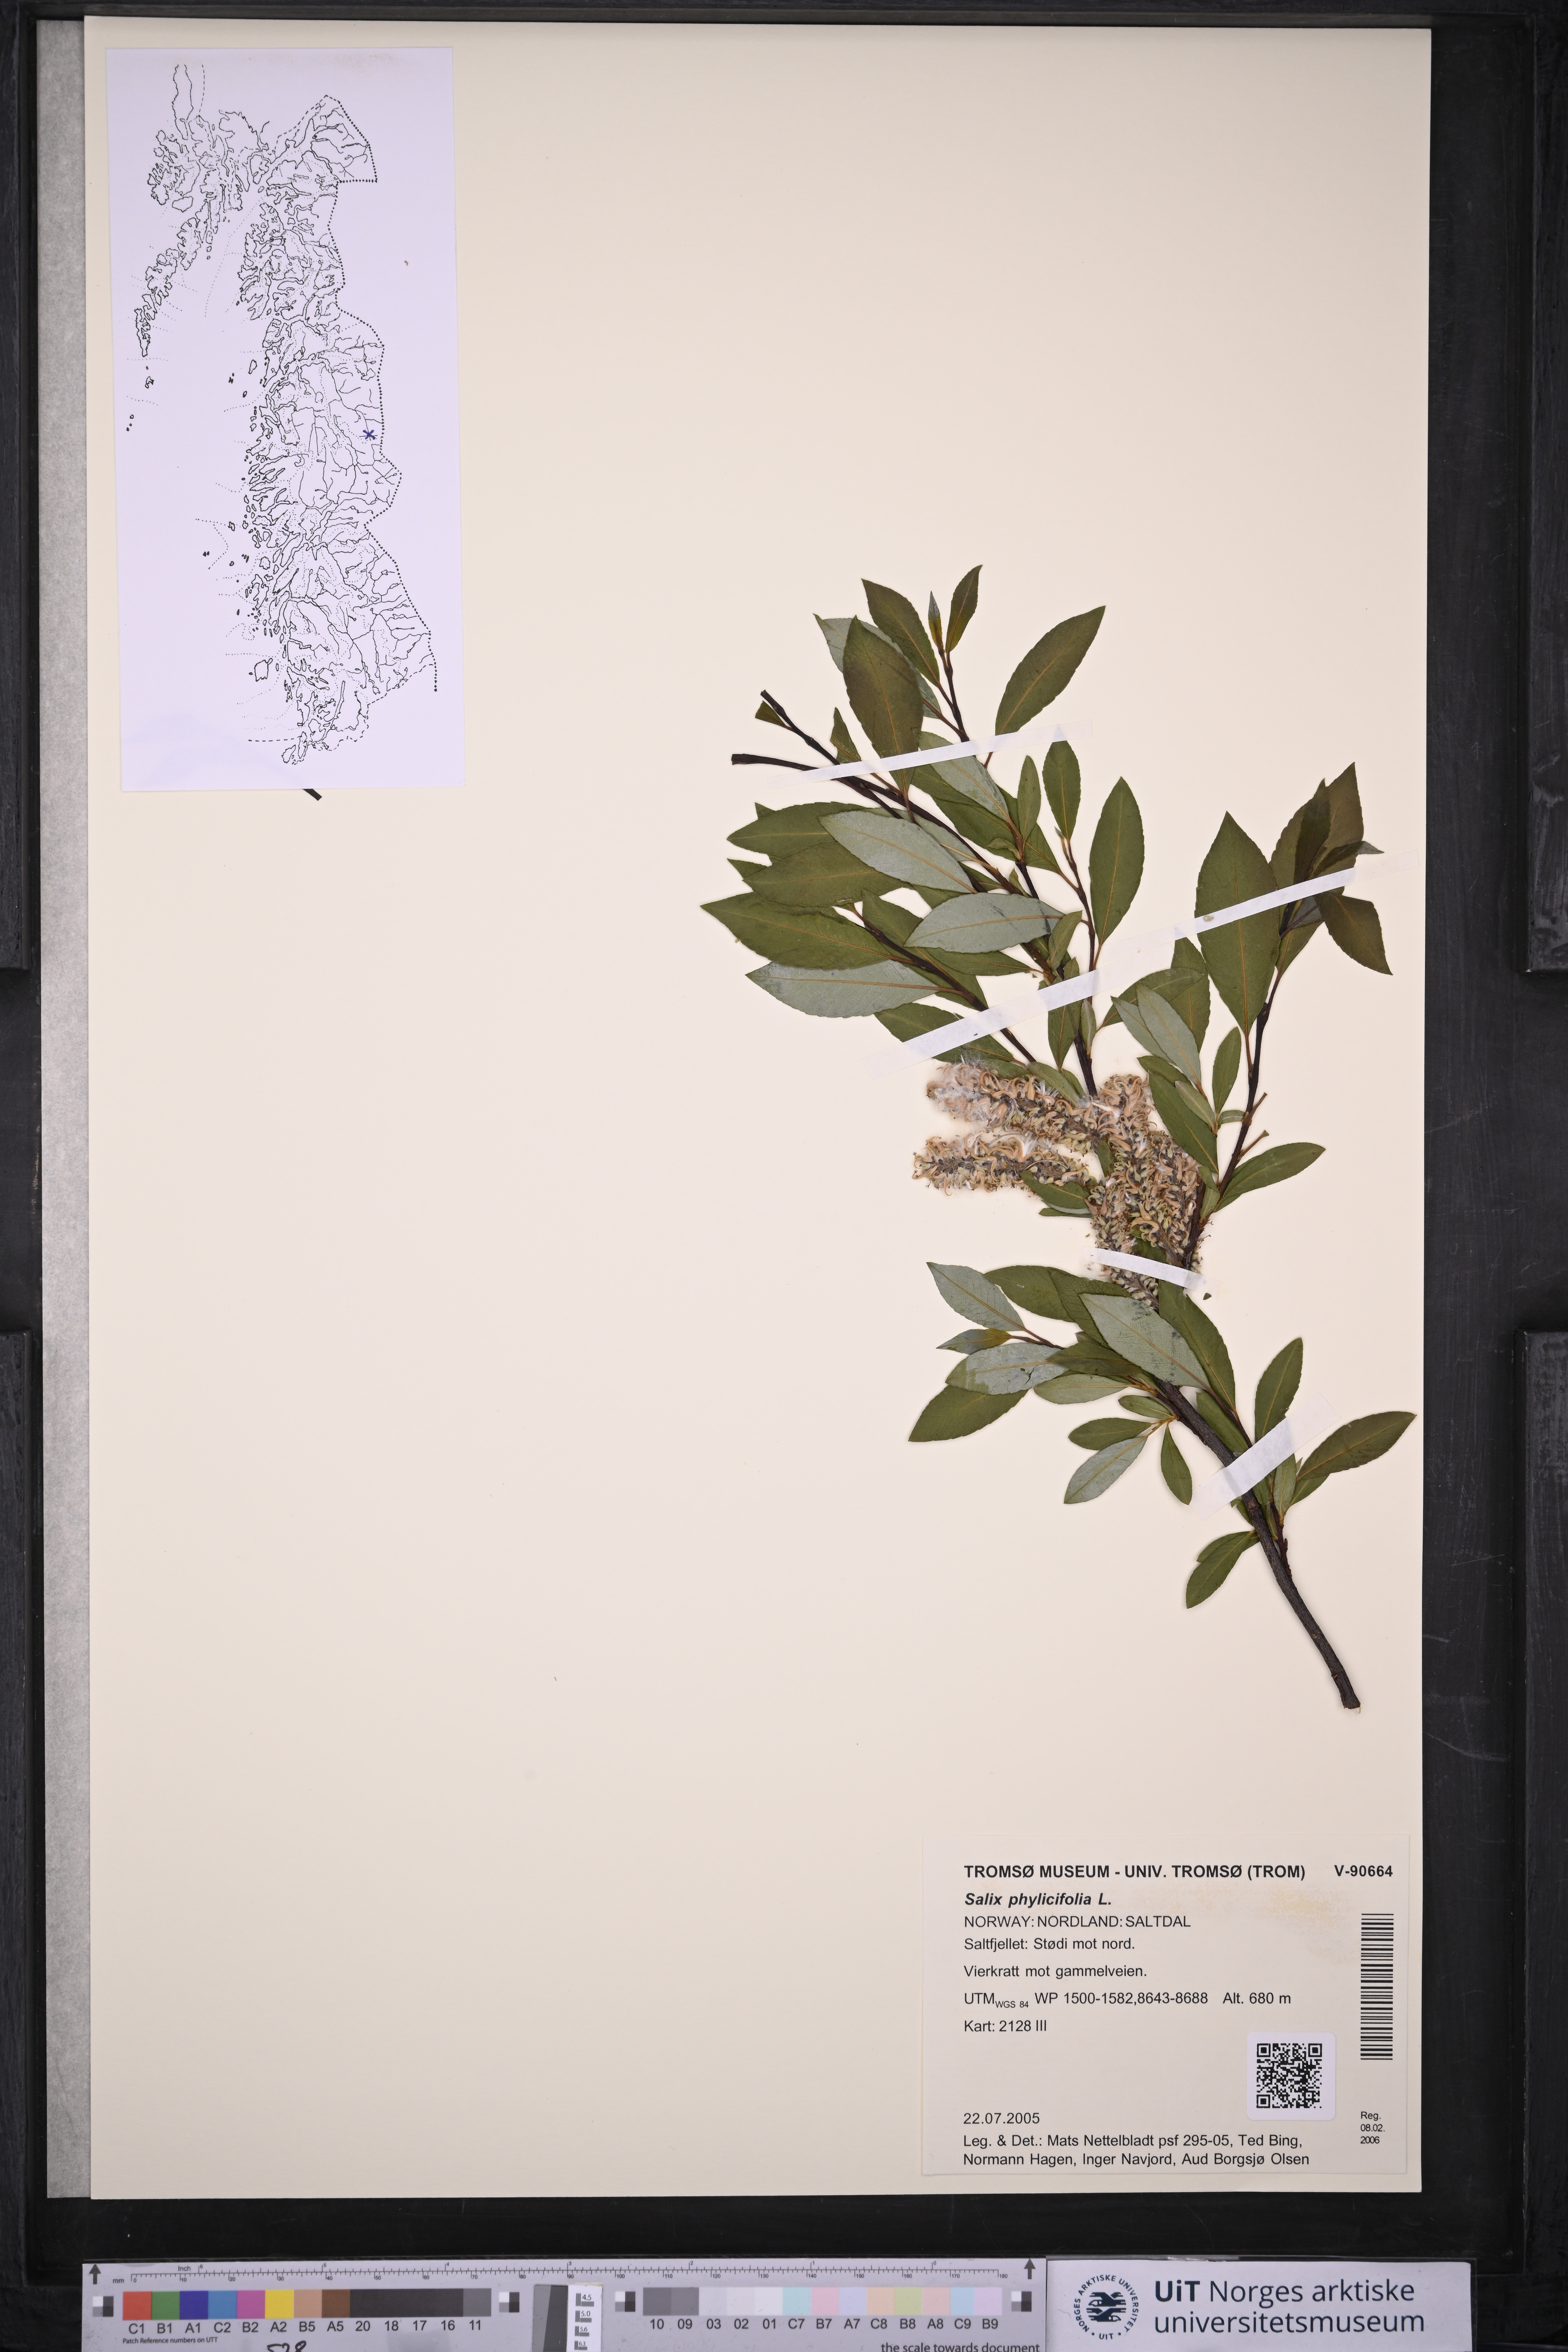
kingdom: Plantae
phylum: Tracheophyta
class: Magnoliopsida
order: Malpighiales
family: Salicaceae
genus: Salix
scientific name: Salix phylicifolia
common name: Tea-leaved willow
